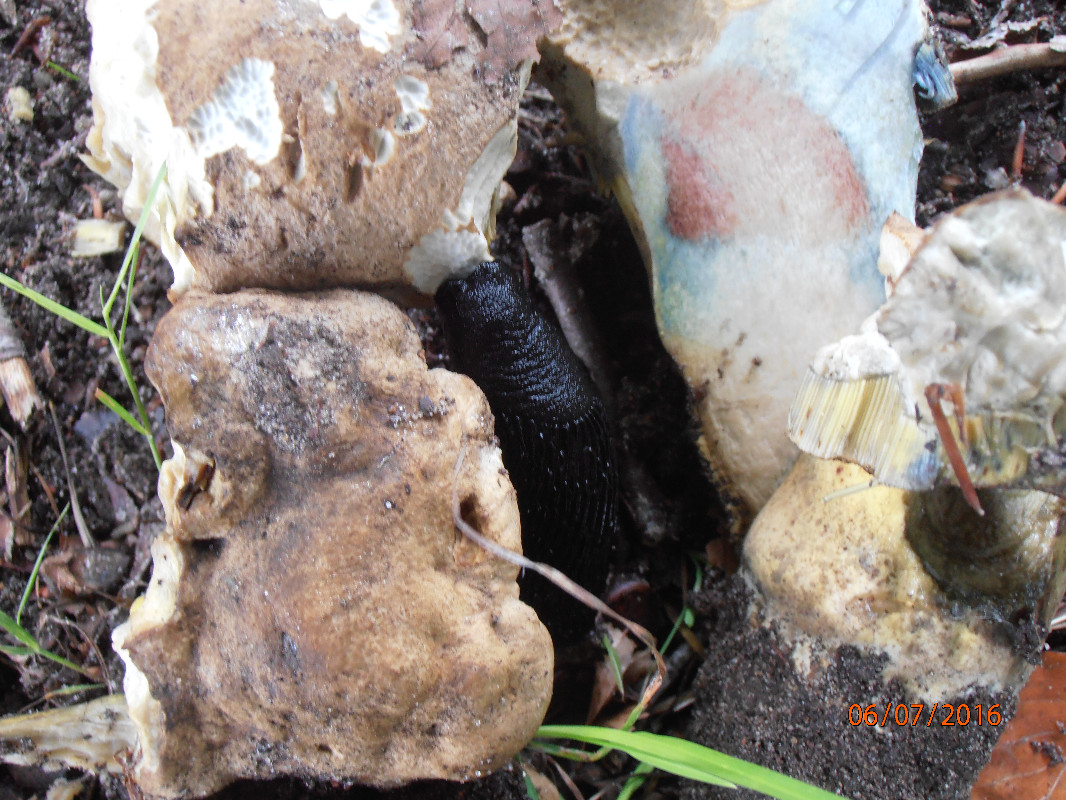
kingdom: Fungi
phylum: Basidiomycota
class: Agaricomycetes
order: Boletales
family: Boletaceae
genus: Caloboletus
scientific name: Caloboletus radicans
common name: rod-rørhat
